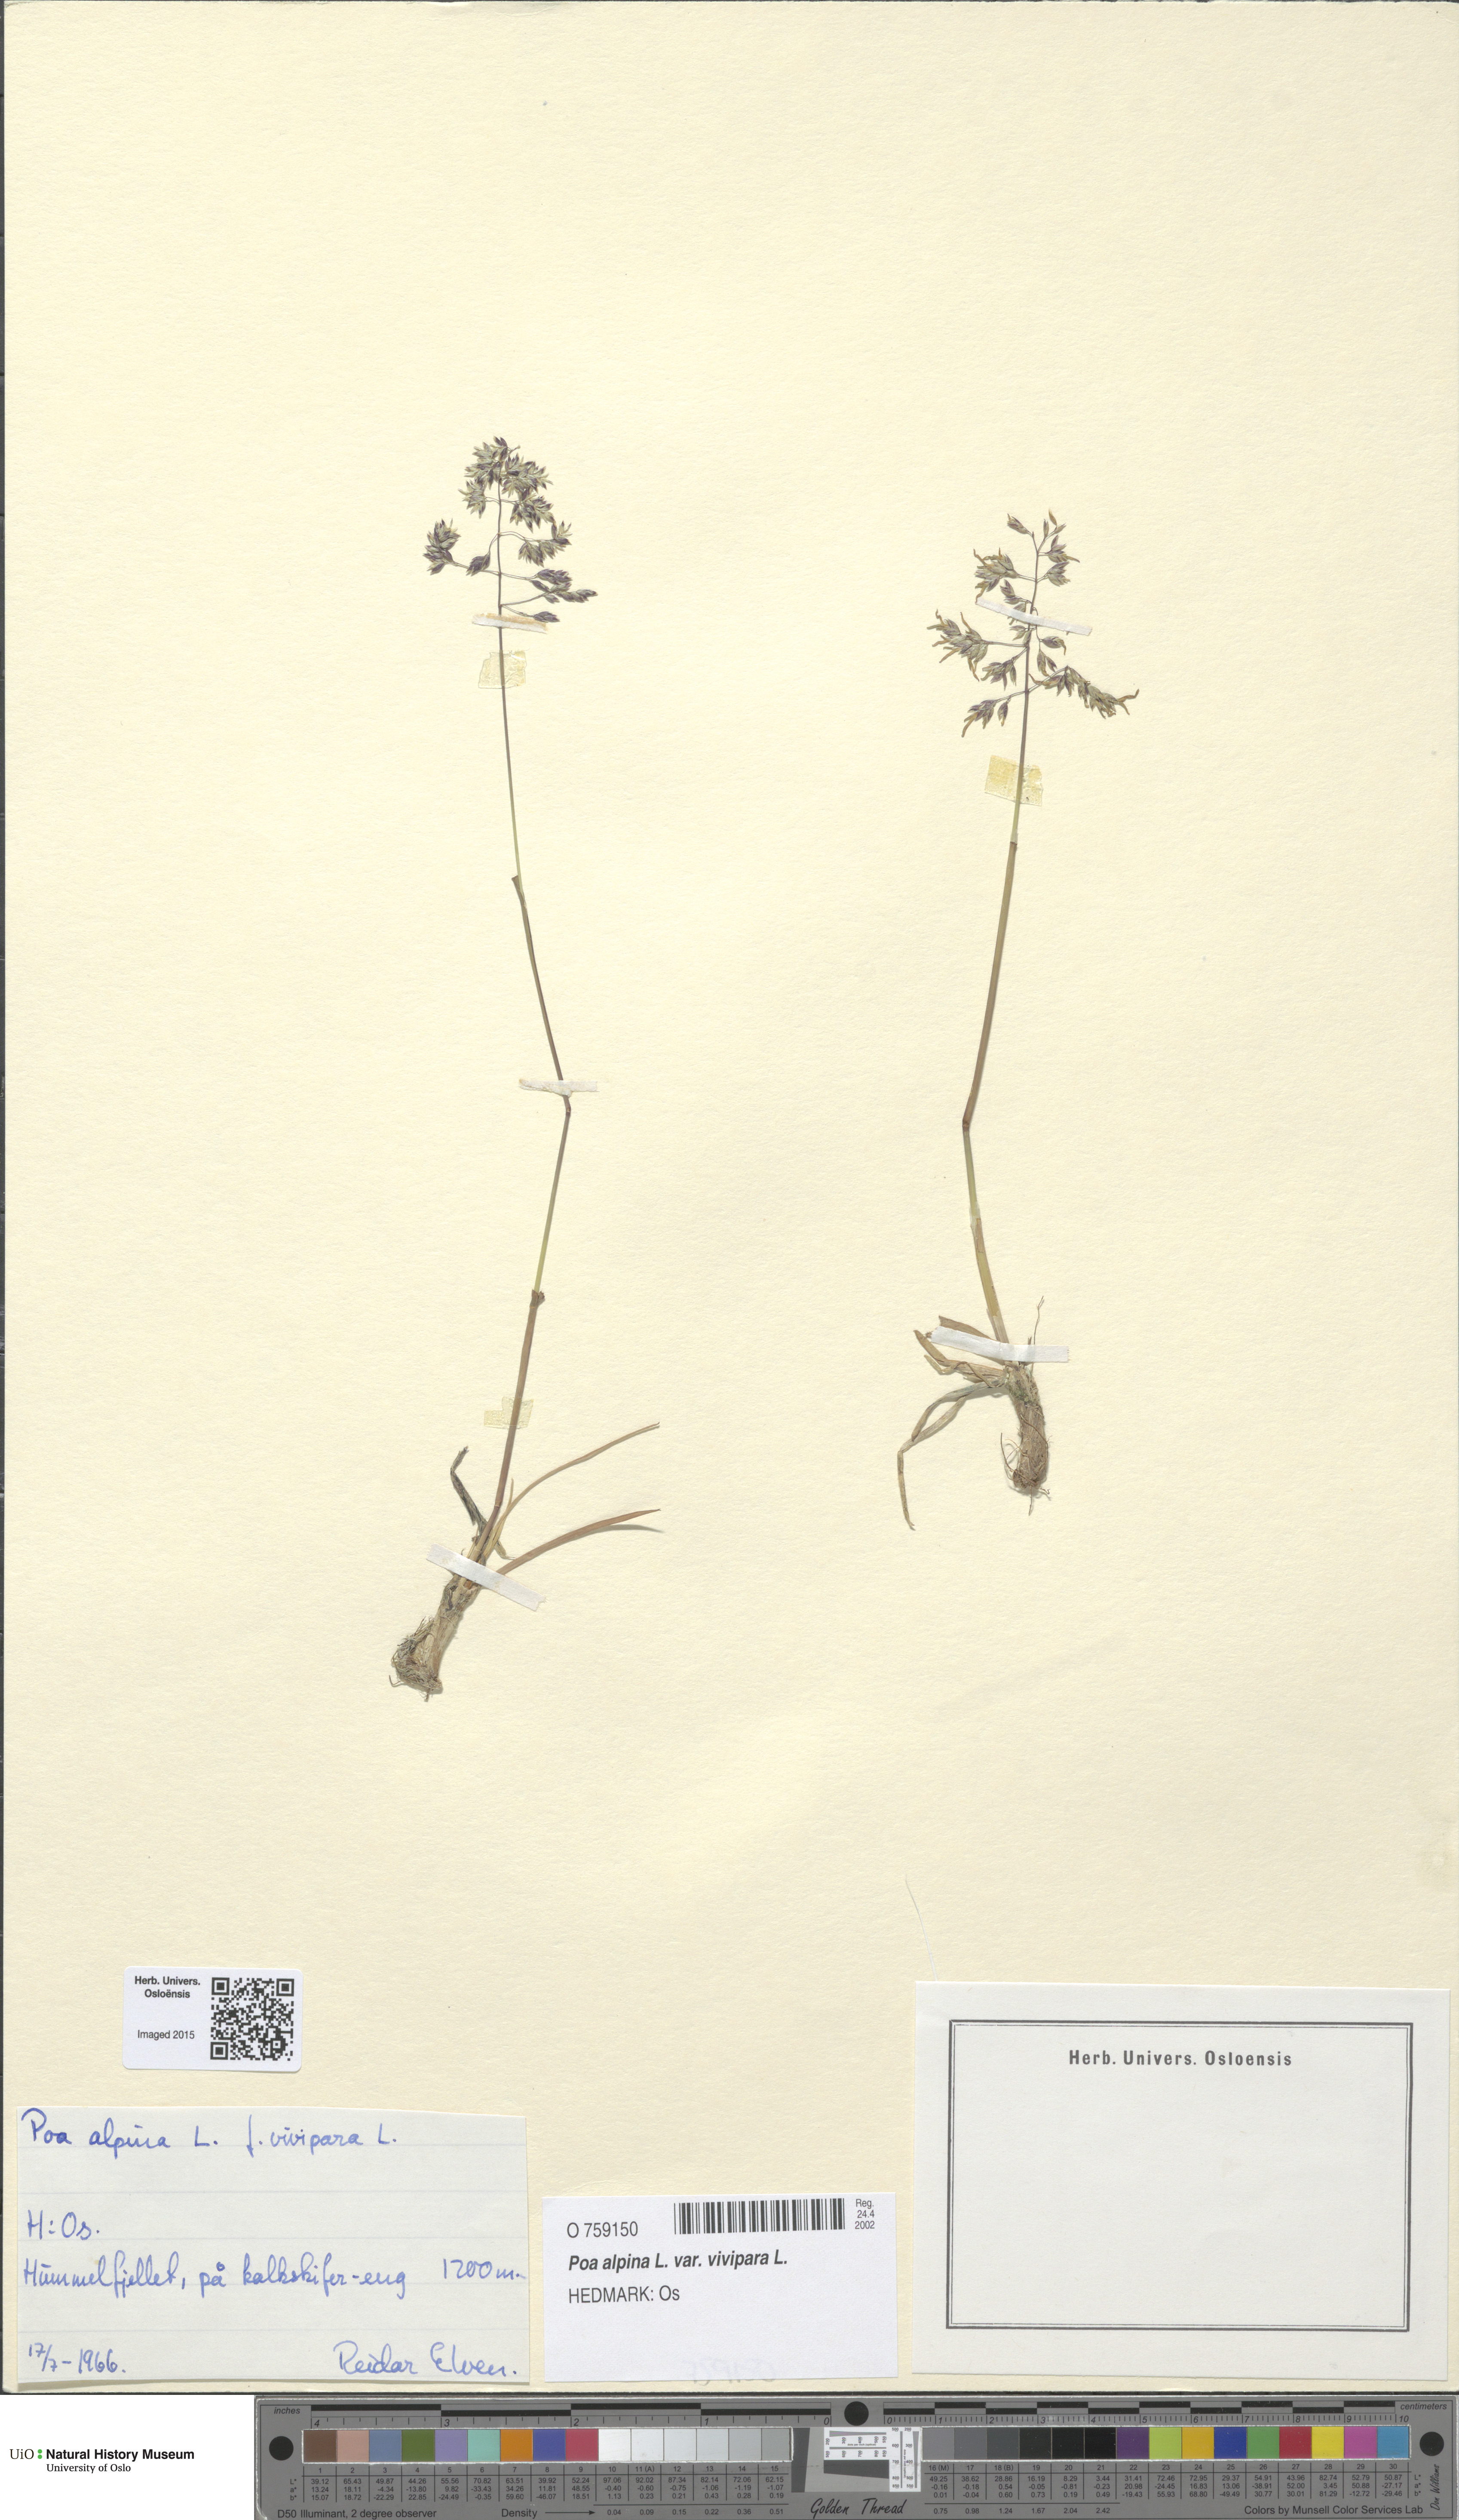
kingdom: Plantae
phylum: Tracheophyta
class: Liliopsida
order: Poales
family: Poaceae
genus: Poa
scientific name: Poa alpina
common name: Alpine bluegrass
